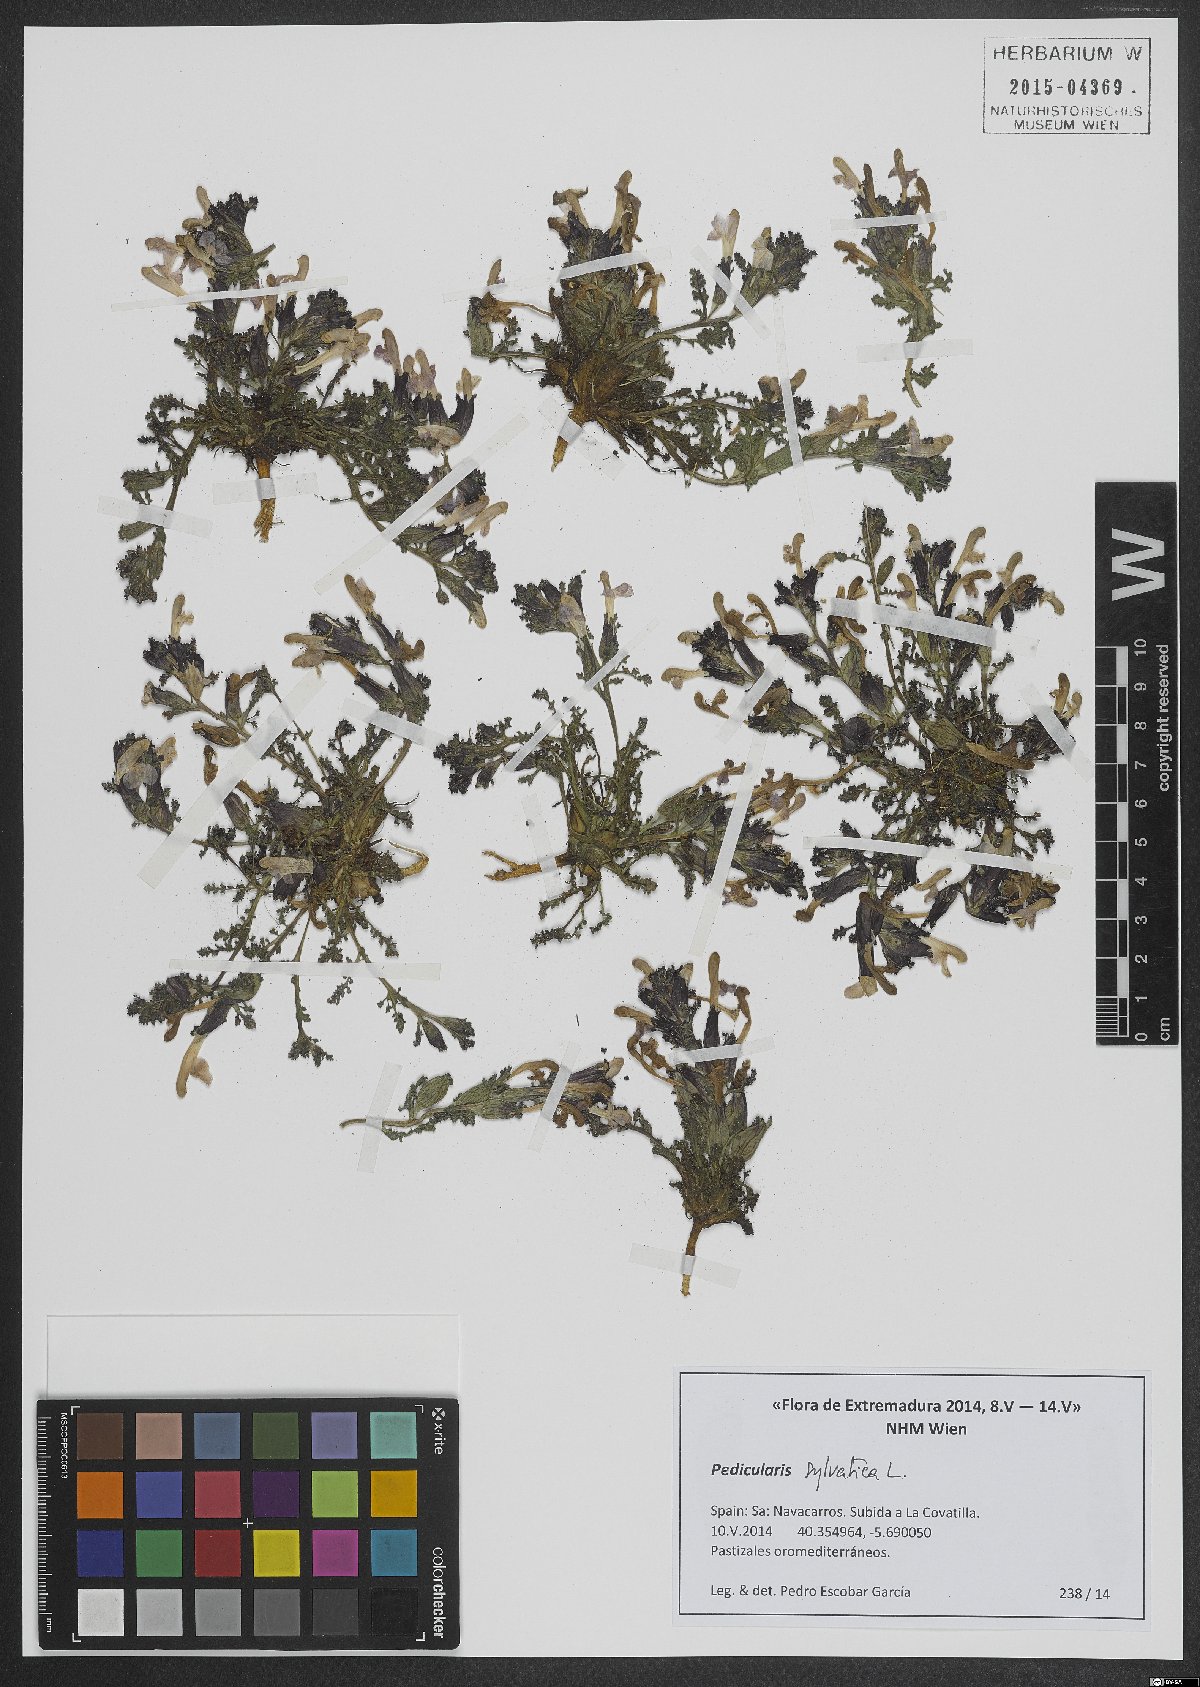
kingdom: Plantae
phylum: Tracheophyta
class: Magnoliopsida
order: Lamiales
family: Orobanchaceae
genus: Pedicularis
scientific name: Pedicularis sylvatica
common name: Lousewort
